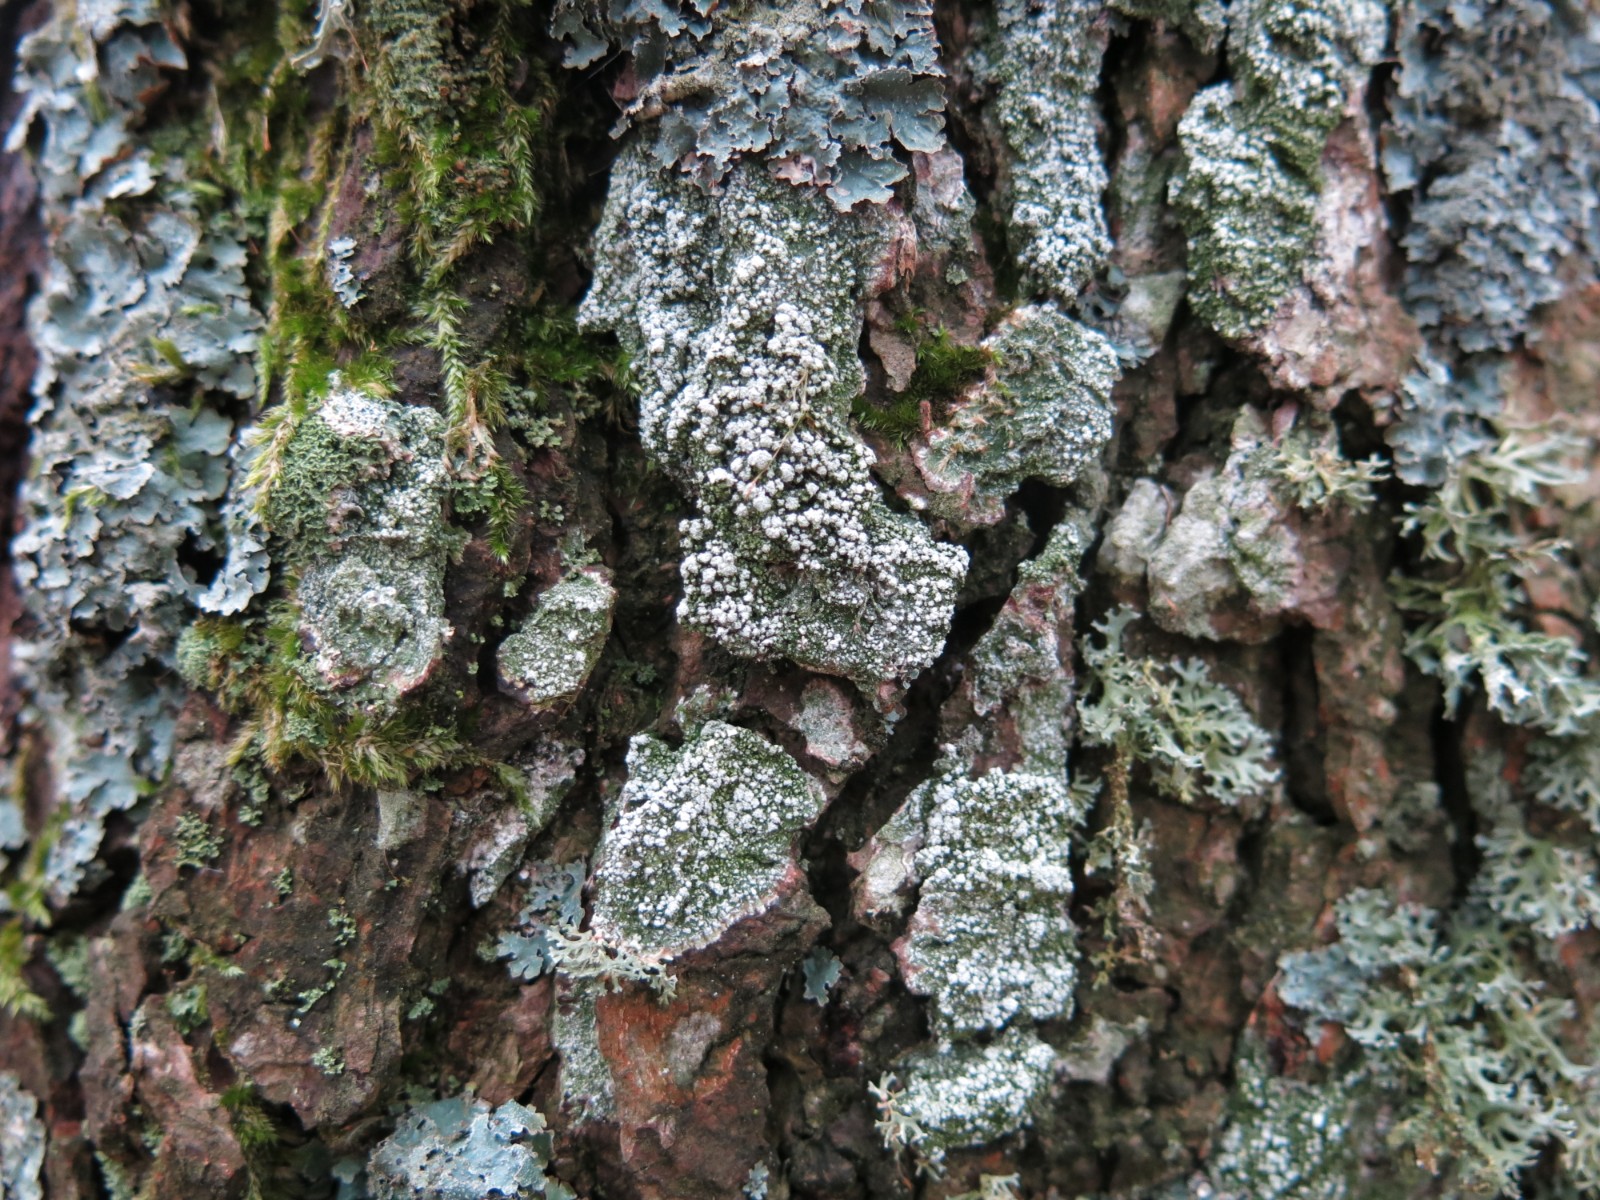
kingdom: Fungi
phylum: Ascomycota
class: Lecanoromycetes
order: Pertusariales
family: Pertusariaceae
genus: Lepra
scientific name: Lepra amara
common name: bitter prikvortelav
